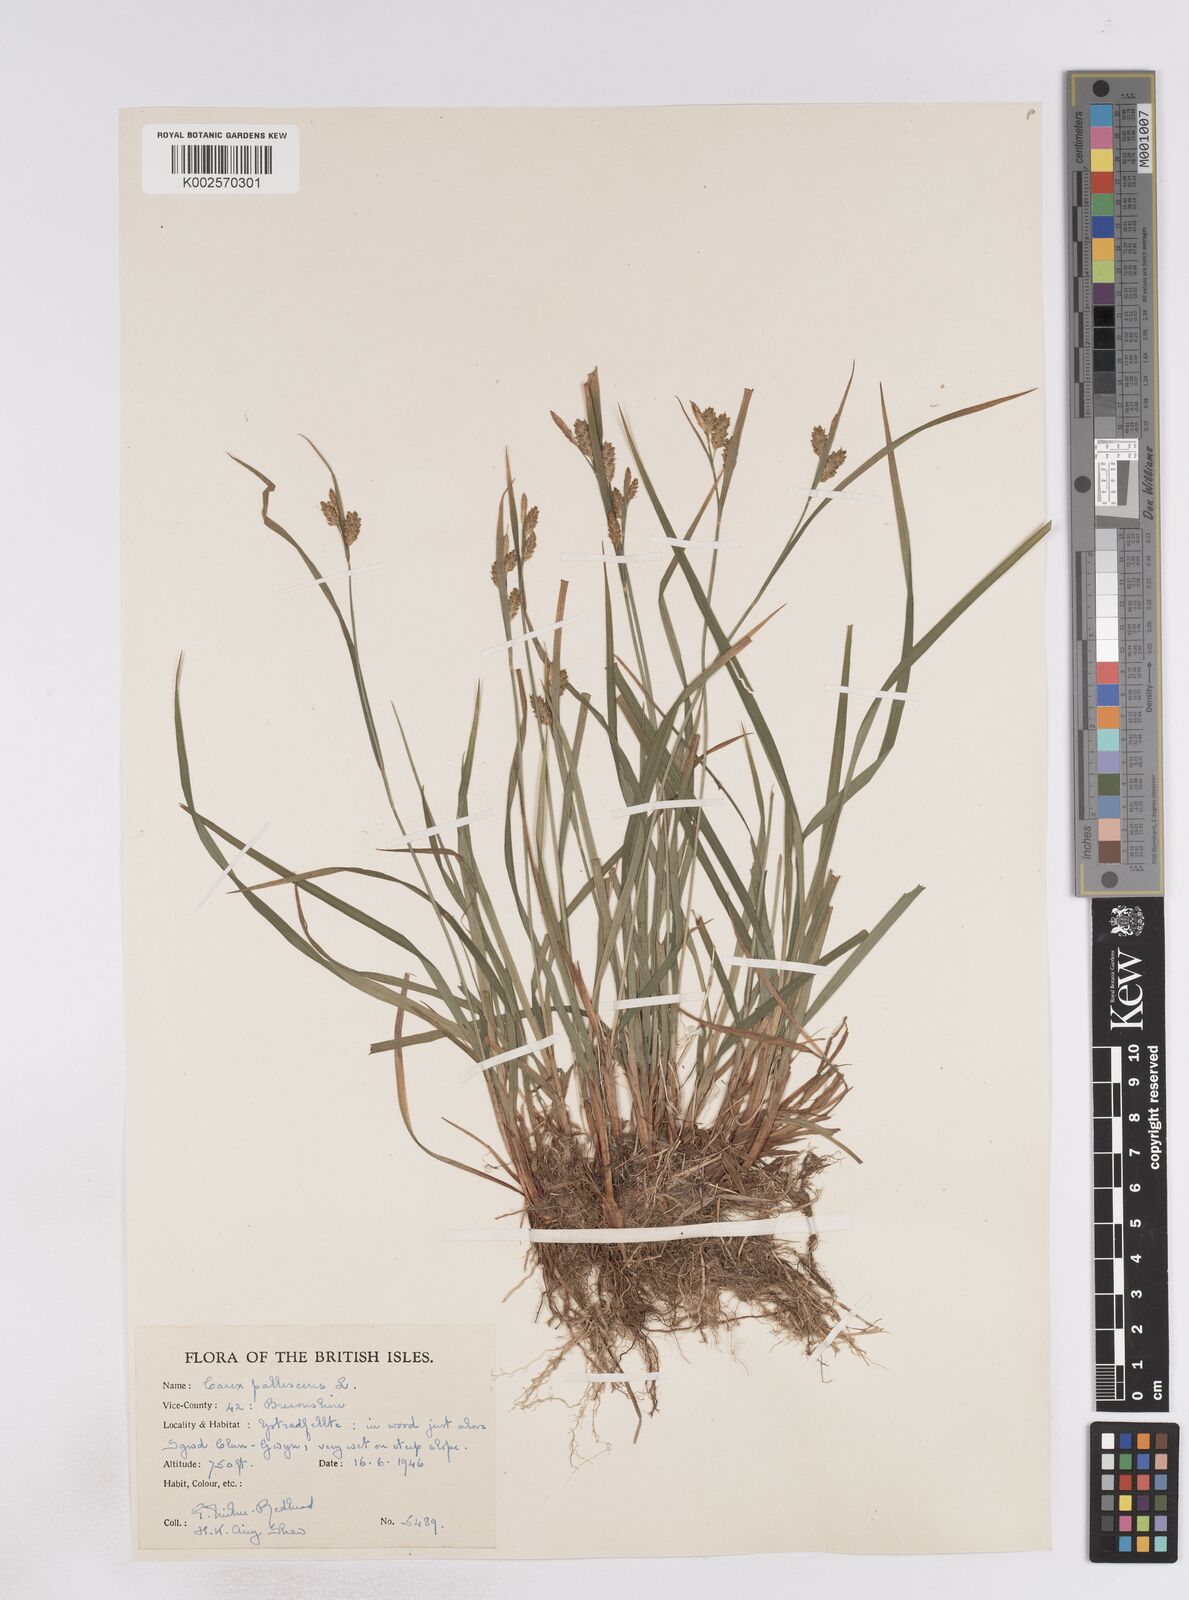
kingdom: Plantae
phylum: Tracheophyta
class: Liliopsida
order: Poales
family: Cyperaceae
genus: Carex
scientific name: Carex pallescens
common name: Pale sedge
